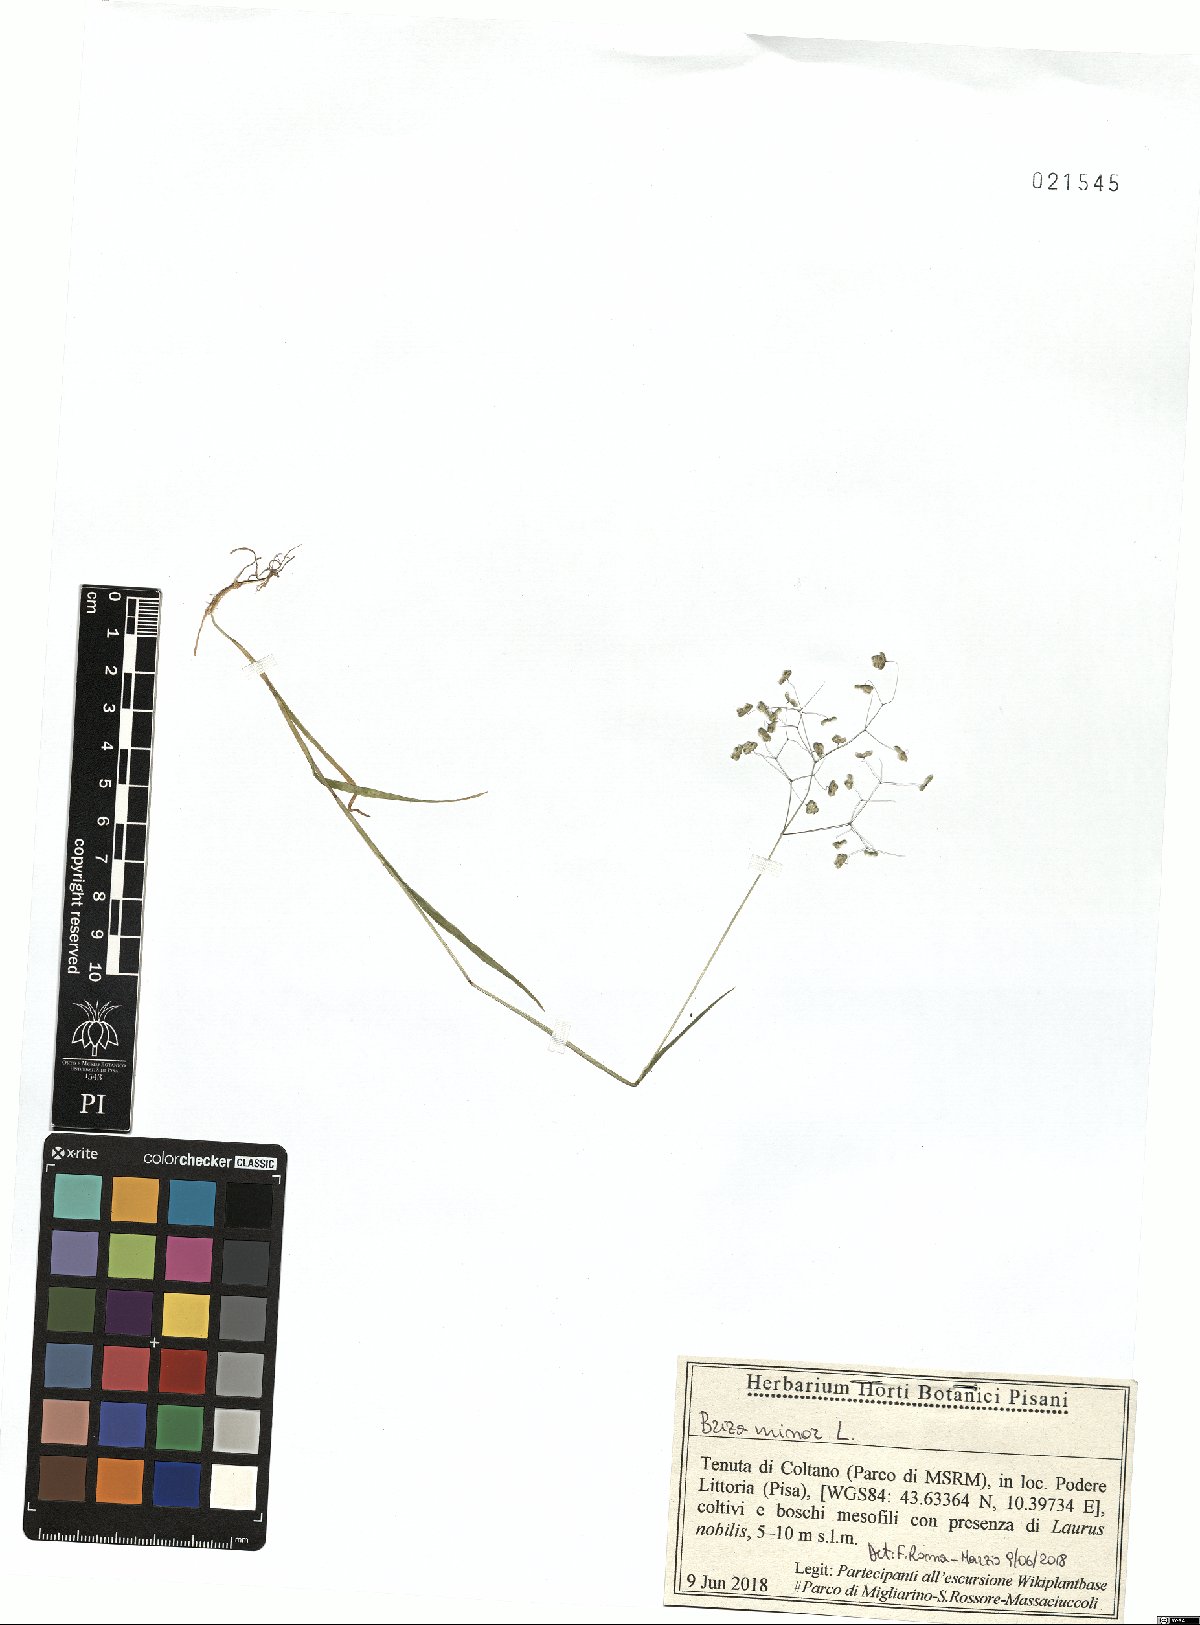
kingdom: Plantae
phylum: Tracheophyta
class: Liliopsida
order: Poales
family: Poaceae
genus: Briza
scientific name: Briza minor
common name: Lesser quaking-grass
